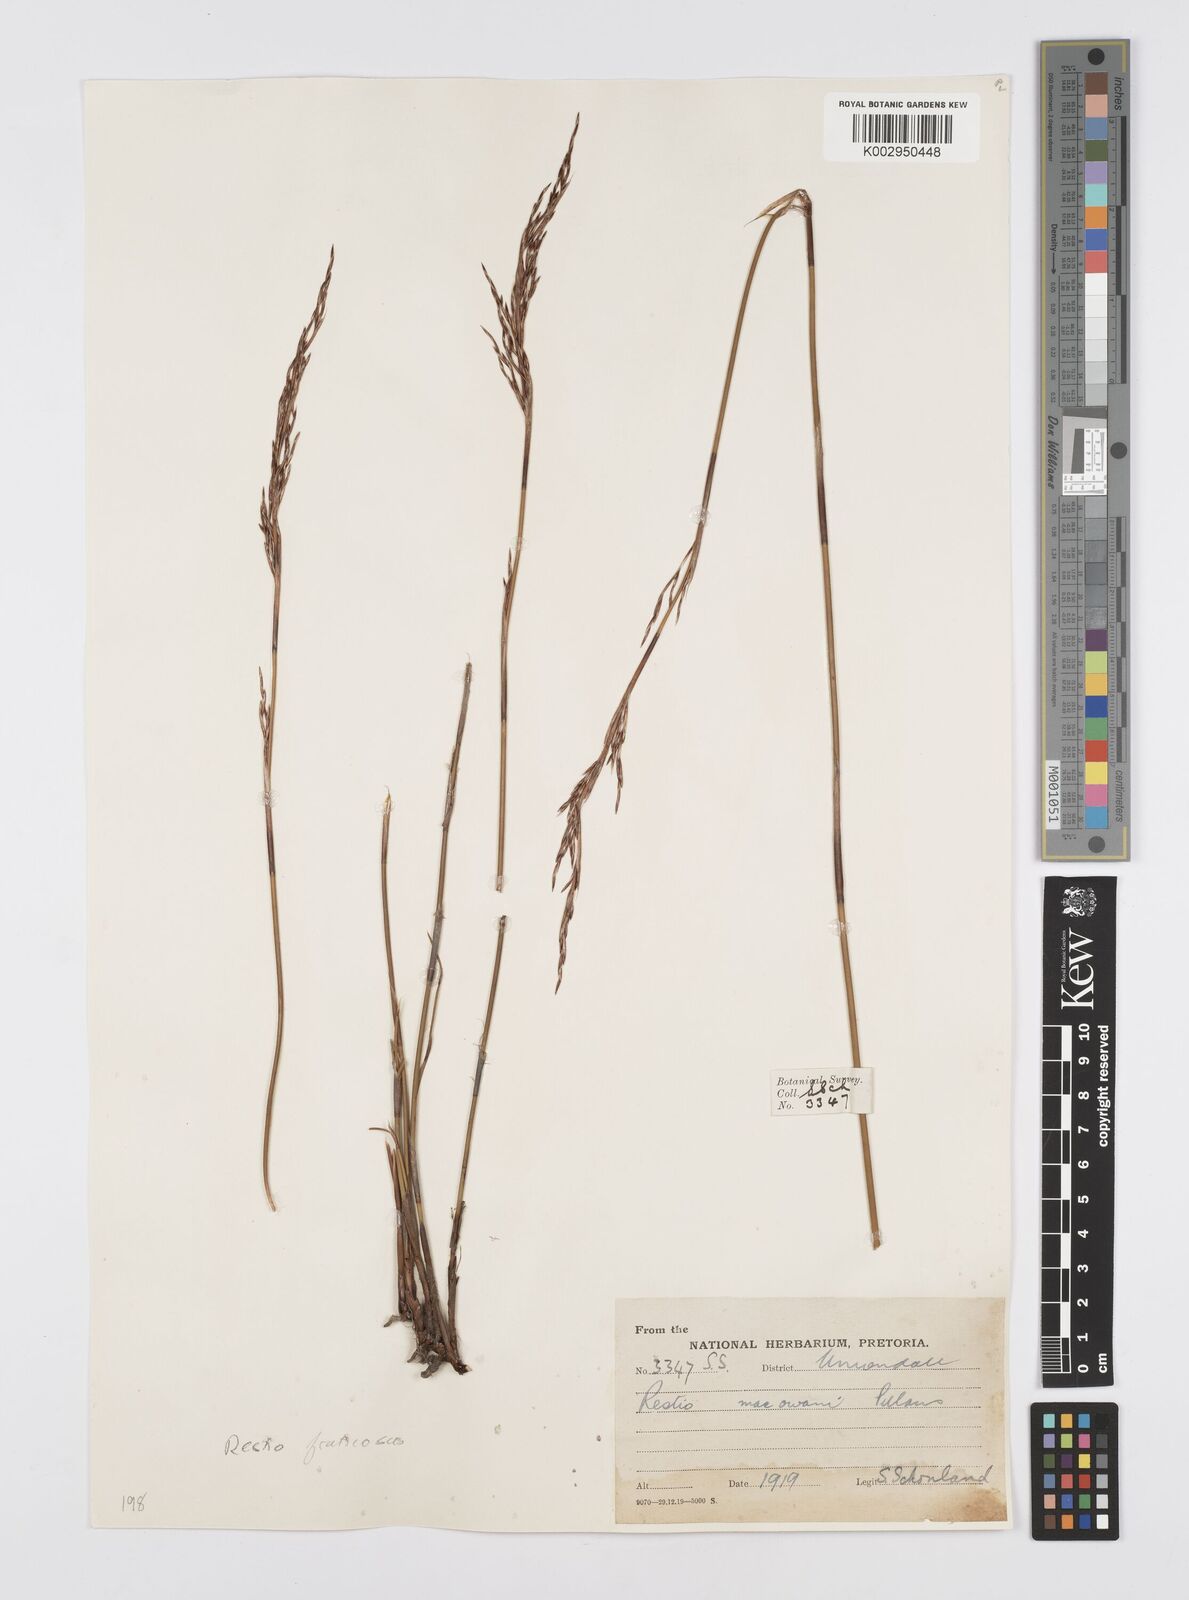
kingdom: Plantae
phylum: Tracheophyta
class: Liliopsida
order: Poales
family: Restionaceae
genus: Rhodocoma
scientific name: Rhodocoma fruticosa
